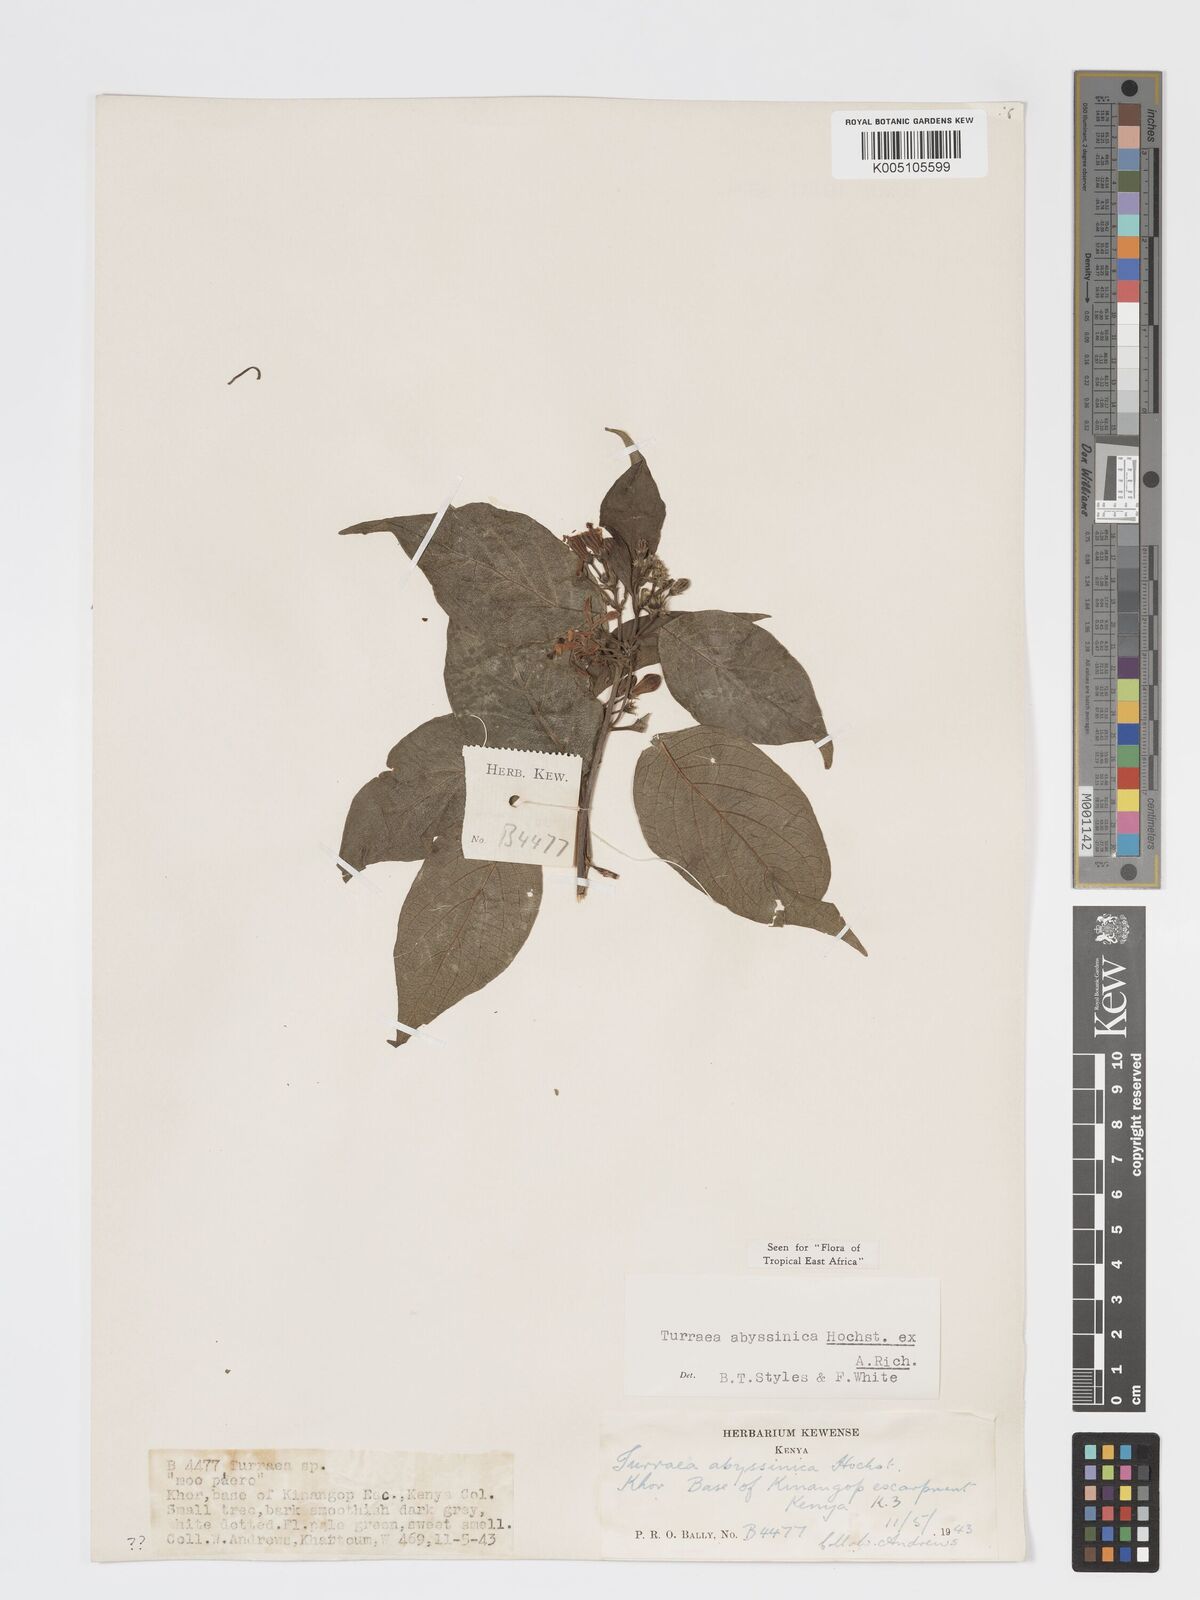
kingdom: Plantae
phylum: Tracheophyta
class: Magnoliopsida
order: Sapindales
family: Meliaceae
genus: Turraea
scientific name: Turraea abyssinica
